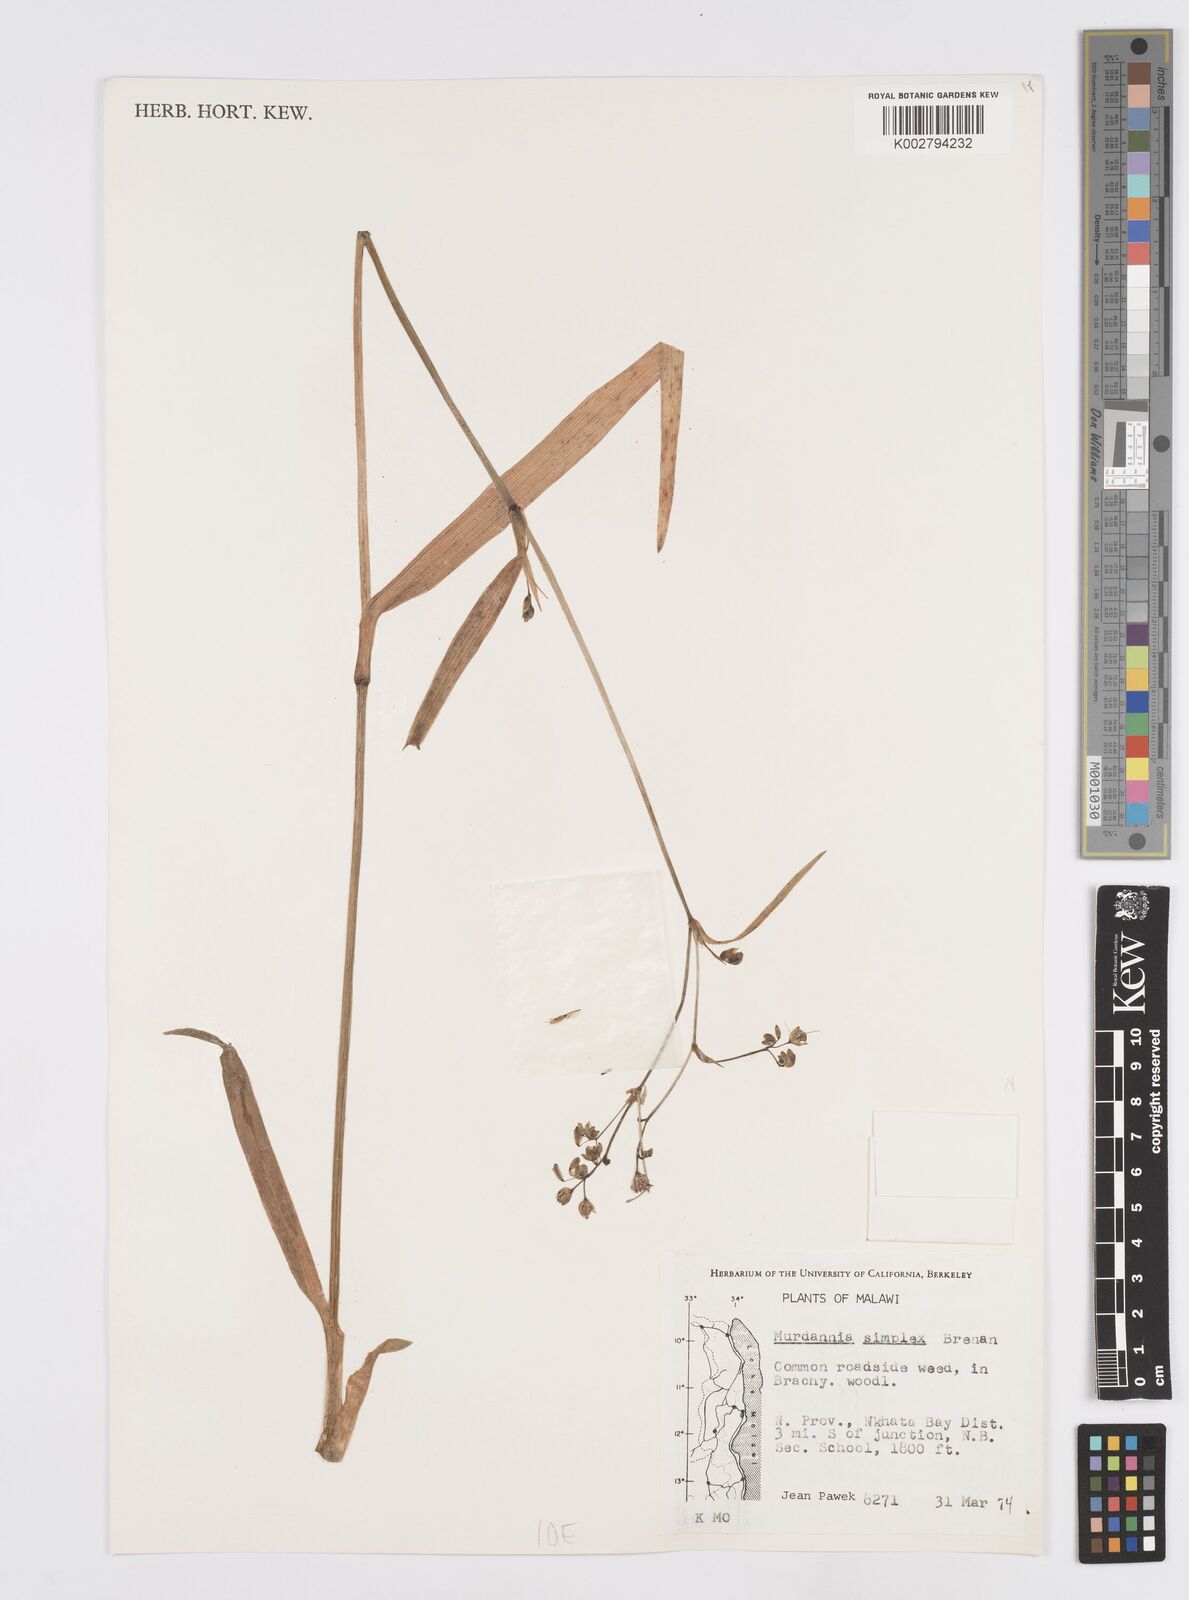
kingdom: Plantae
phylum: Tracheophyta
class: Liliopsida
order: Commelinales
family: Commelinaceae
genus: Murdannia
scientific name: Murdannia simplex
